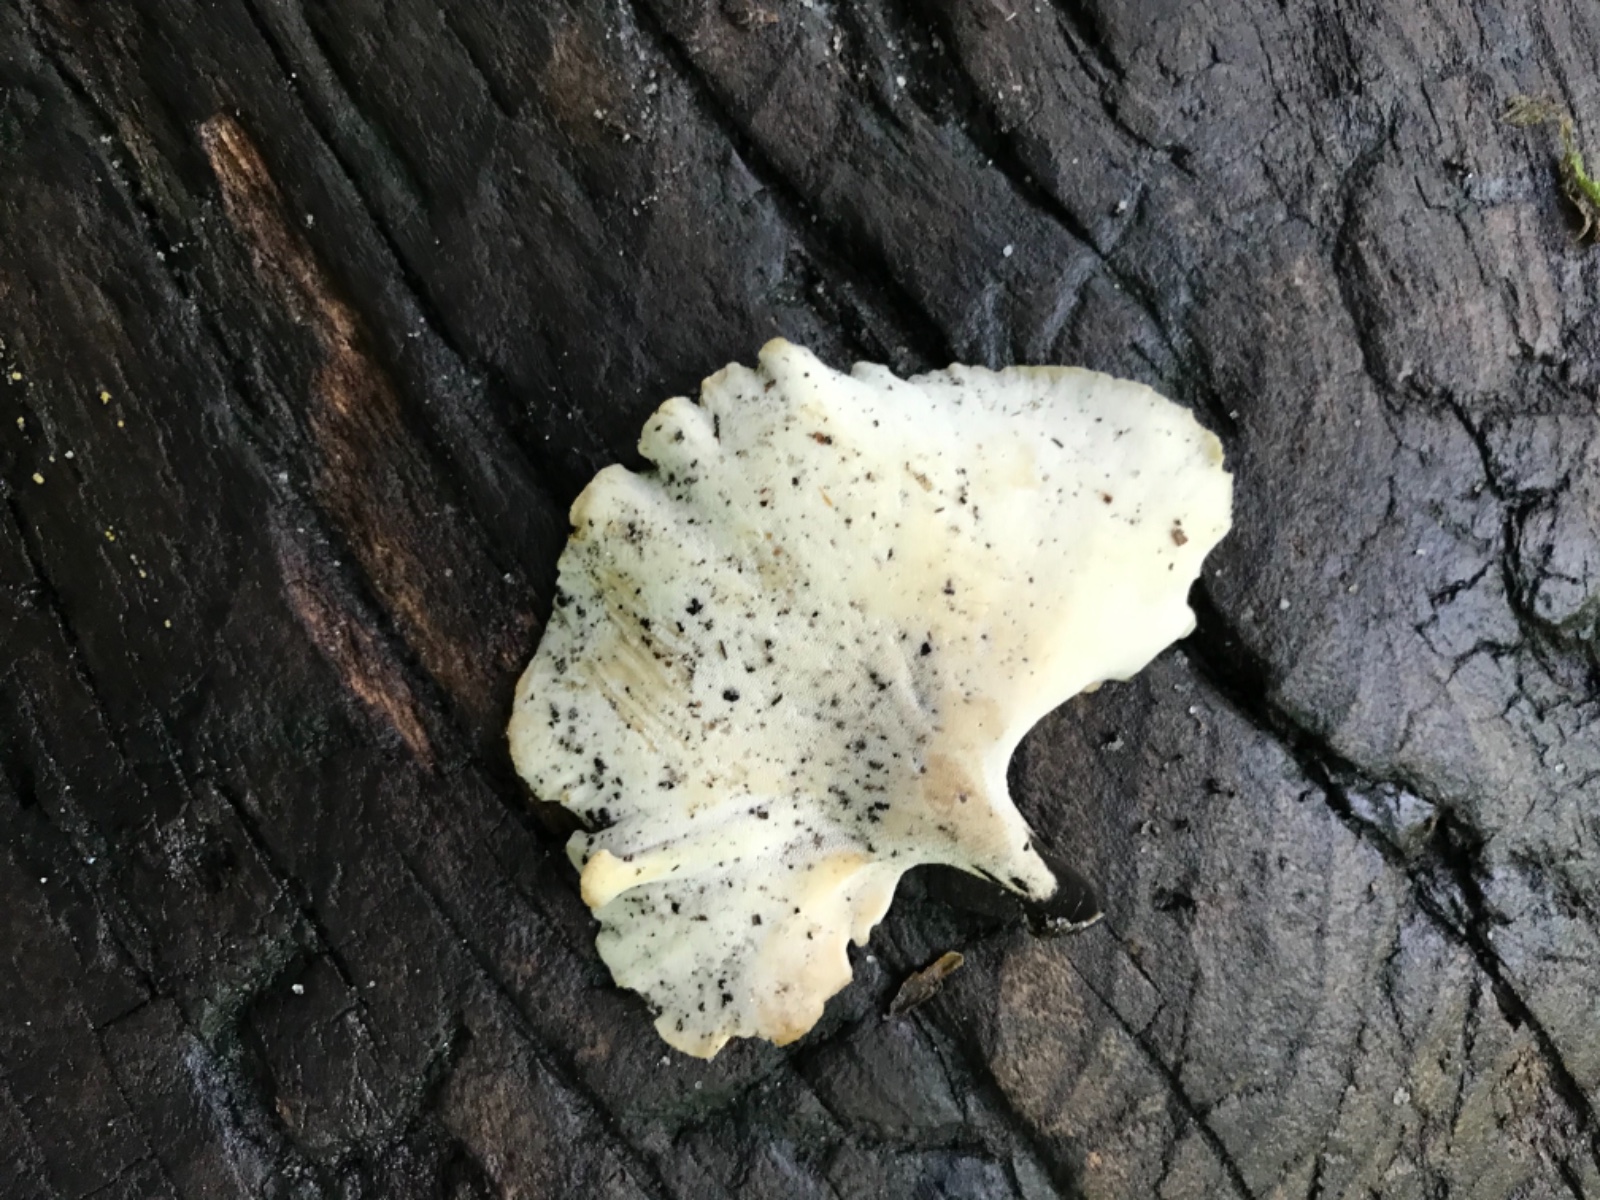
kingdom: Fungi
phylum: Basidiomycota
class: Agaricomycetes
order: Polyporales
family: Polyporaceae
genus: Cerioporus
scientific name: Cerioporus varius
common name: foranderlig stilkporesvamp
